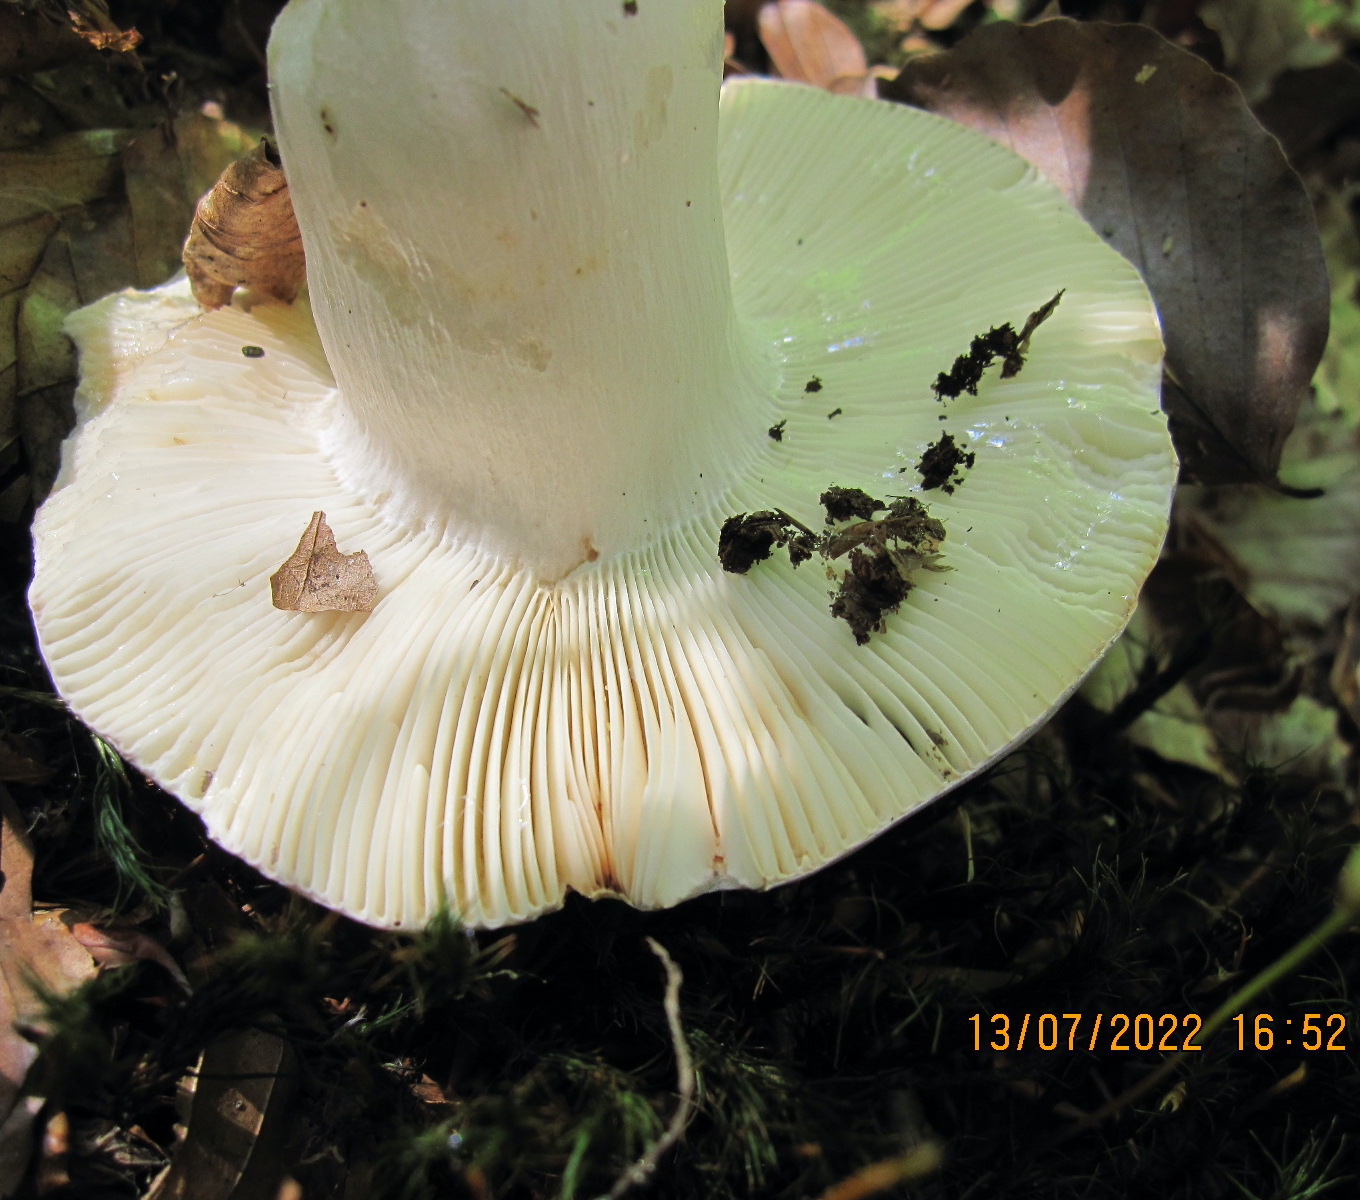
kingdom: Fungi
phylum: Basidiomycota
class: Agaricomycetes
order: Russulales
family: Russulaceae
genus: Russula
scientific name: Russula cyanoxantha
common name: broget skørhat
